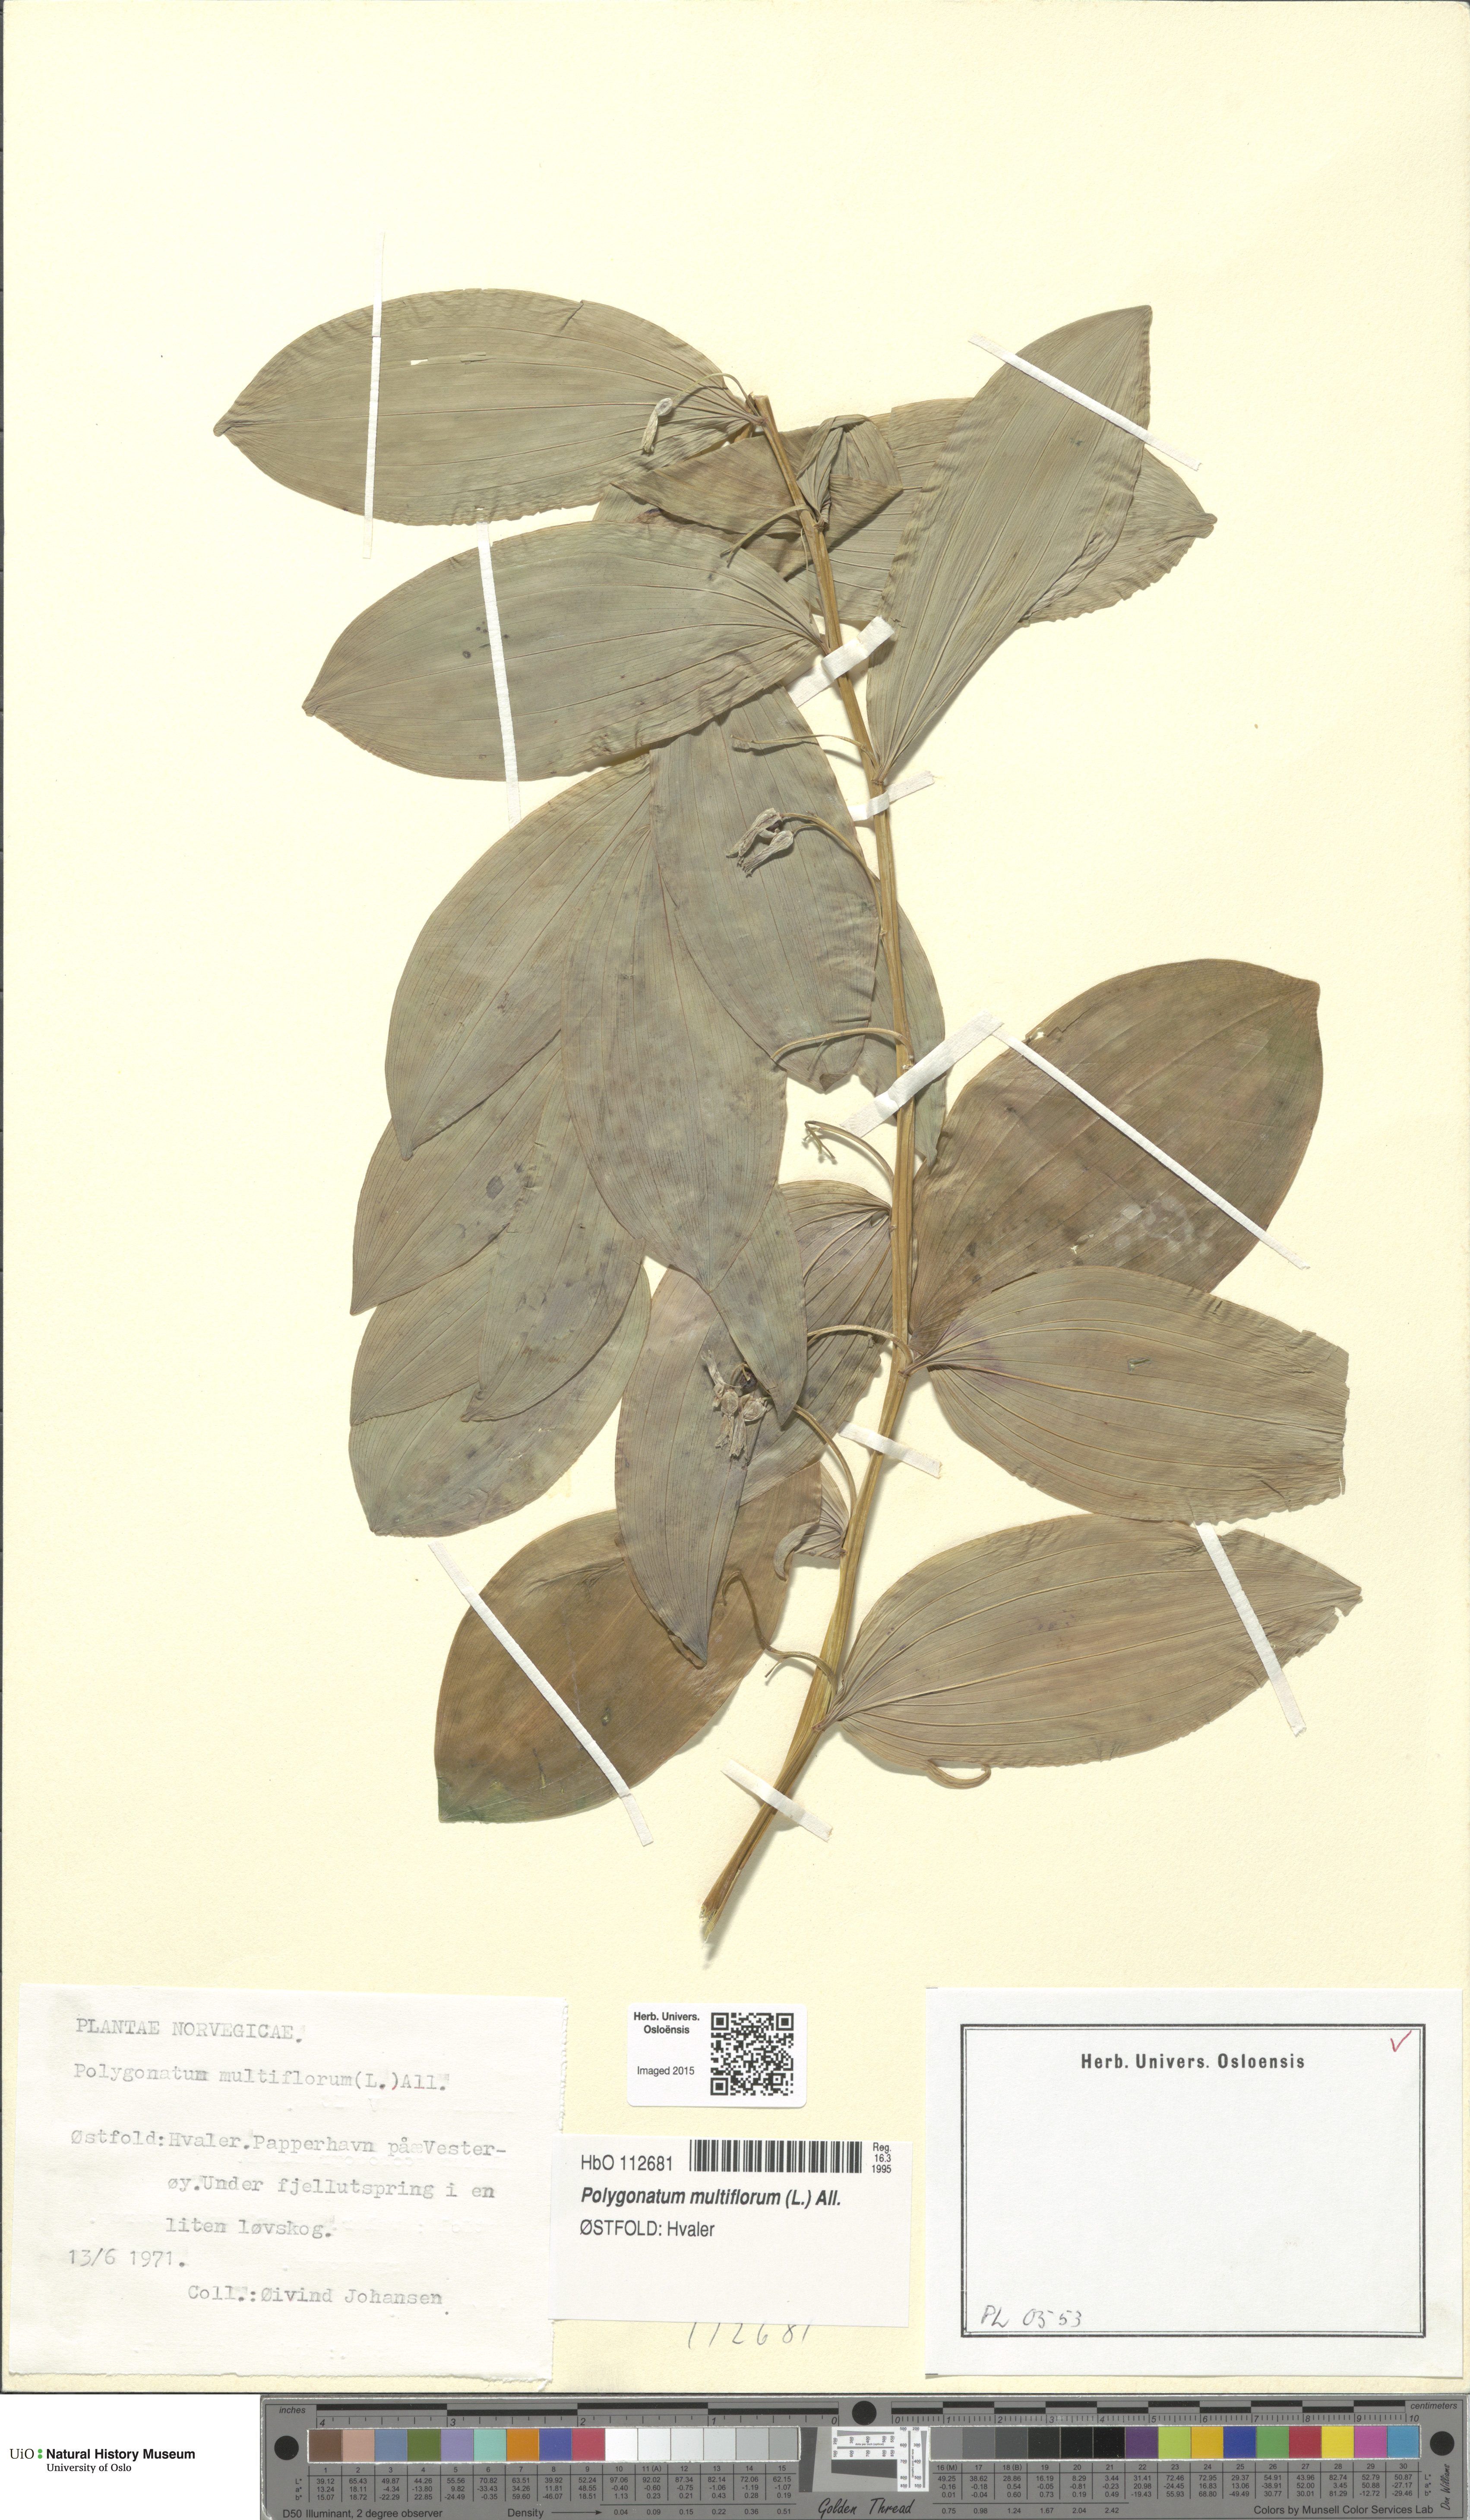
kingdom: Plantae
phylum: Tracheophyta
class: Liliopsida
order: Asparagales
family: Asparagaceae
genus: Polygonatum
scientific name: Polygonatum multiflorum
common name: Solomon's-seal
